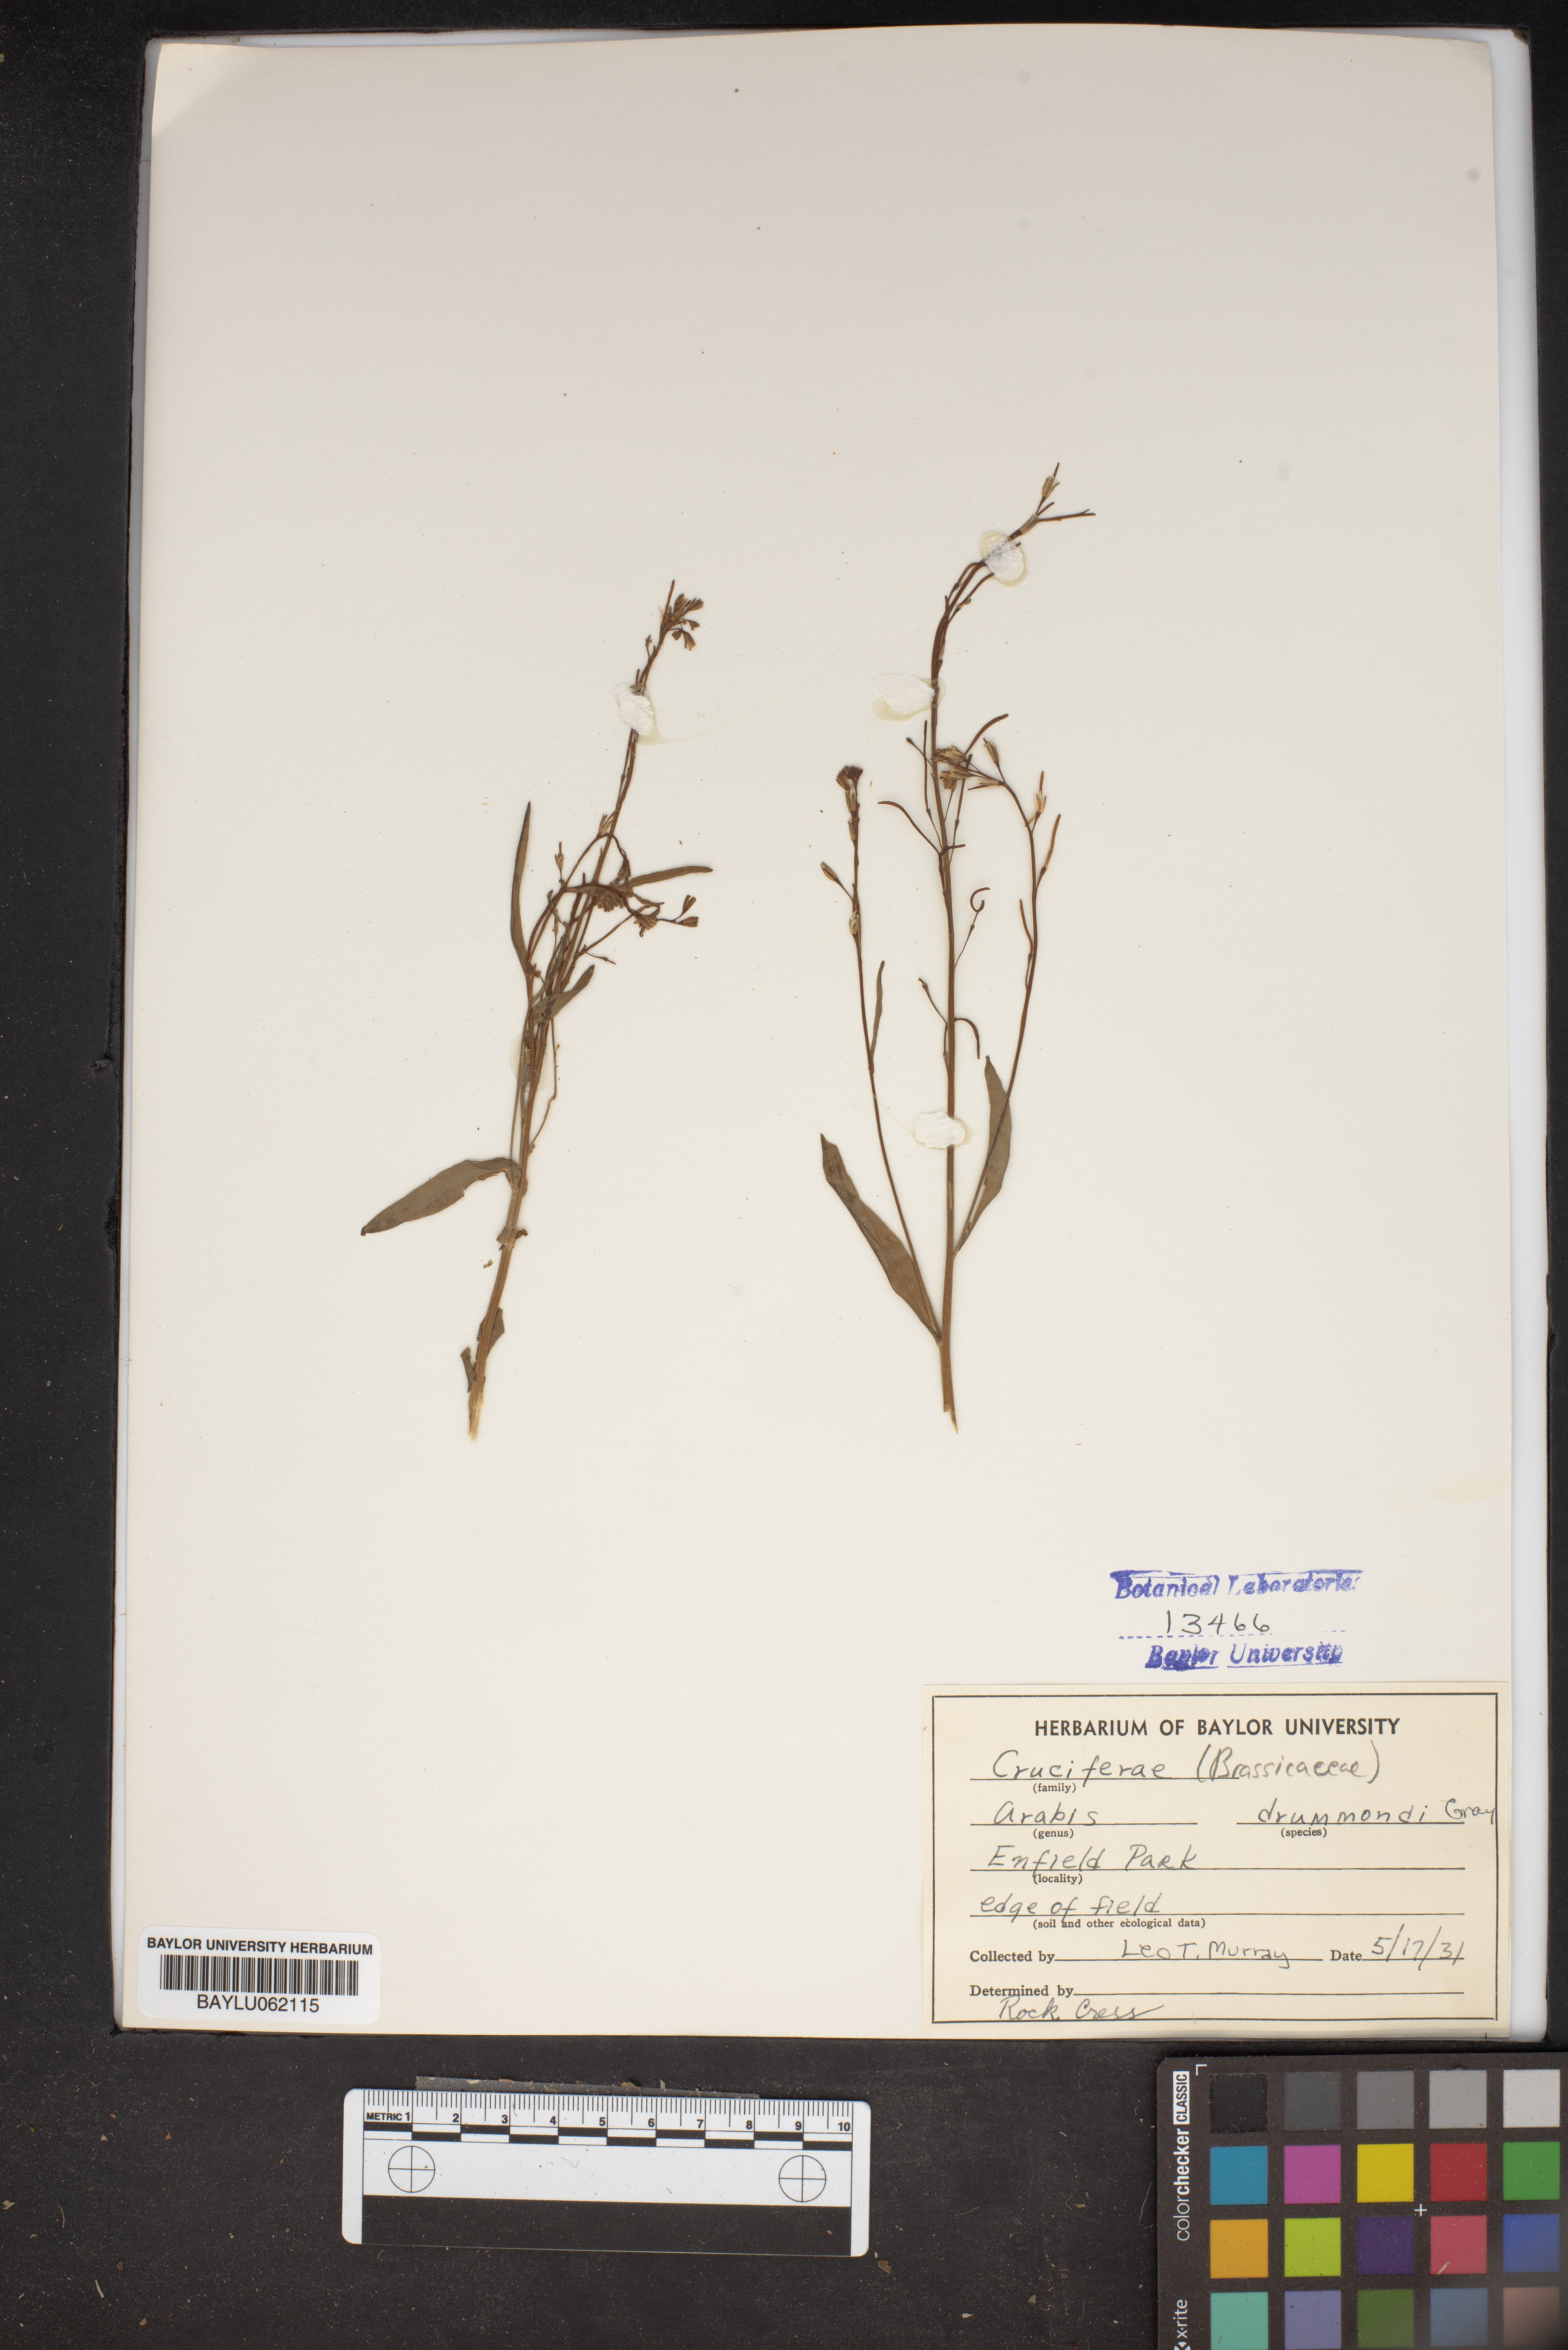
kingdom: Plantae
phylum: Tracheophyta
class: Magnoliopsida
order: Brassicales
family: Brassicaceae
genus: Boechera
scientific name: Boechera stricta
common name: Canadian rockcress
